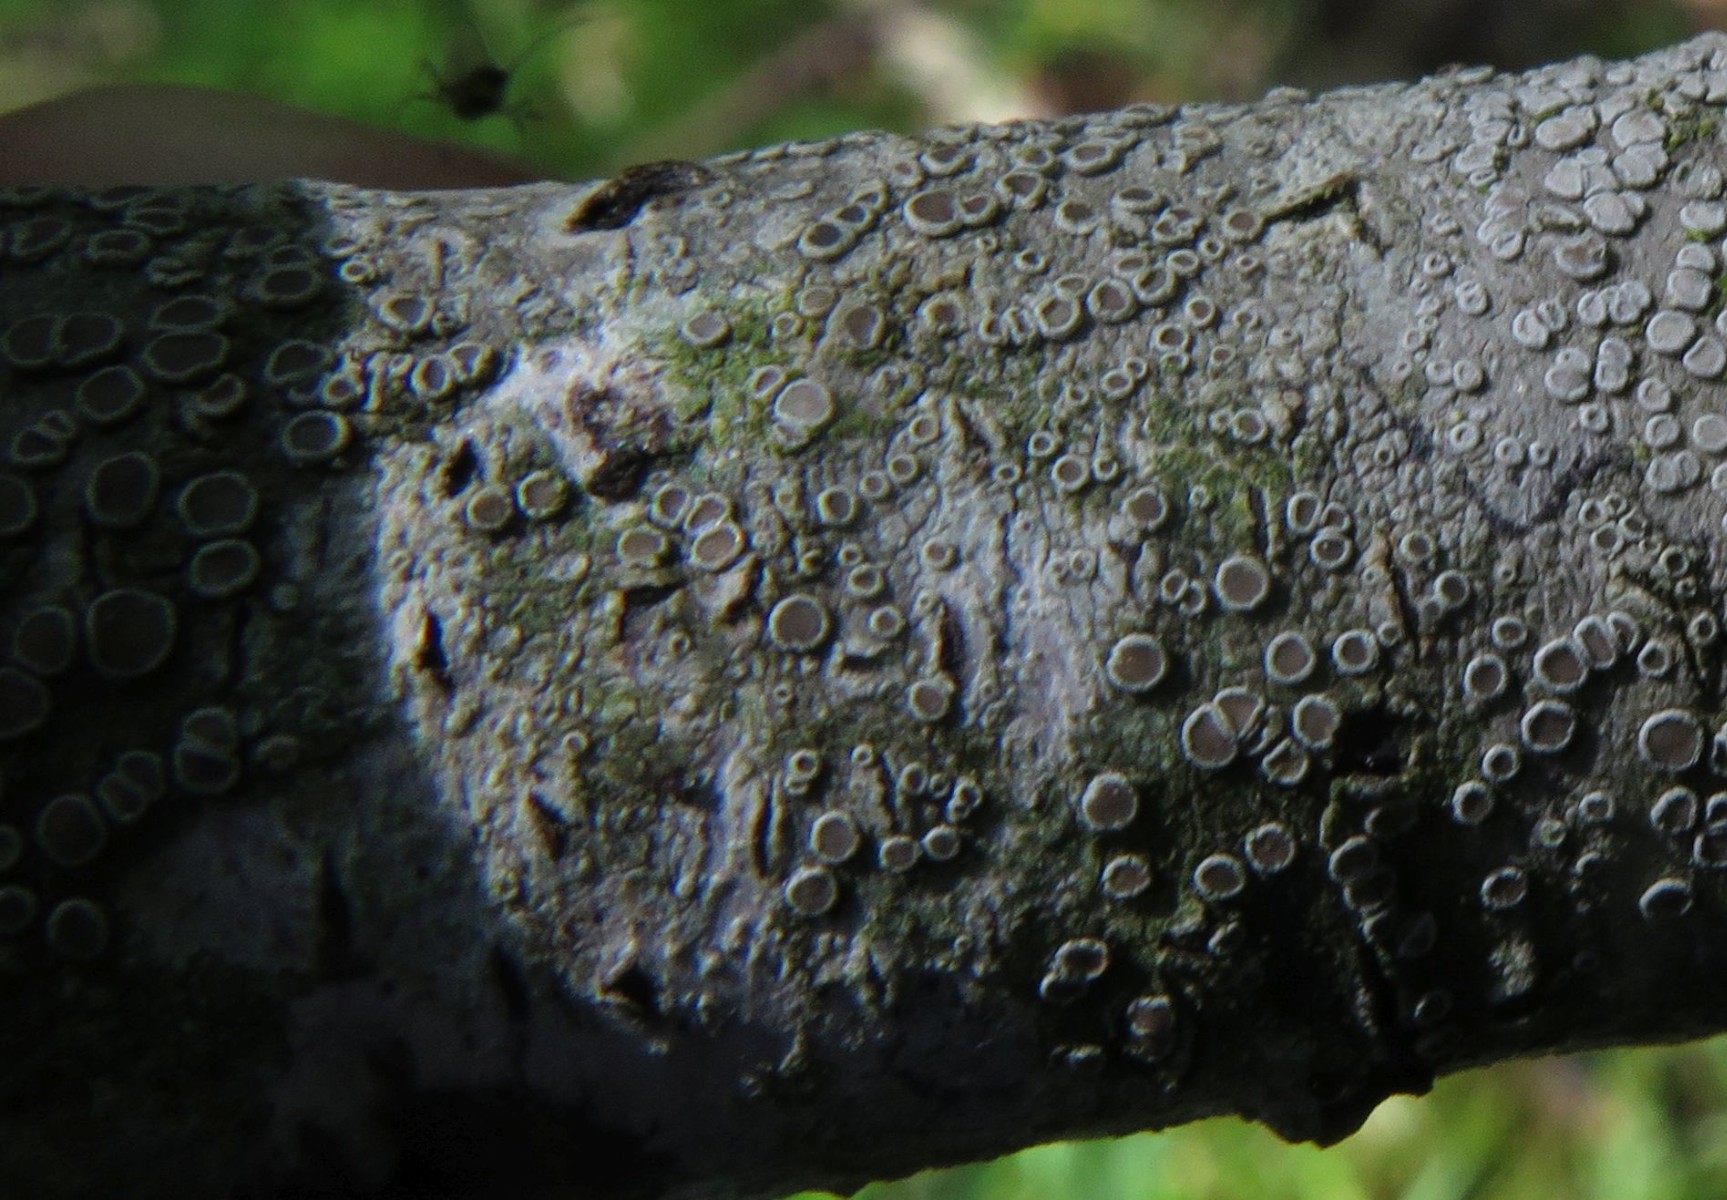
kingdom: Fungi
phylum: Ascomycota
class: Lecanoromycetes
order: Lecanorales
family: Lecanoraceae
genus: Lecanora
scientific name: Lecanora chlarotera
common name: brun kantskivelav
